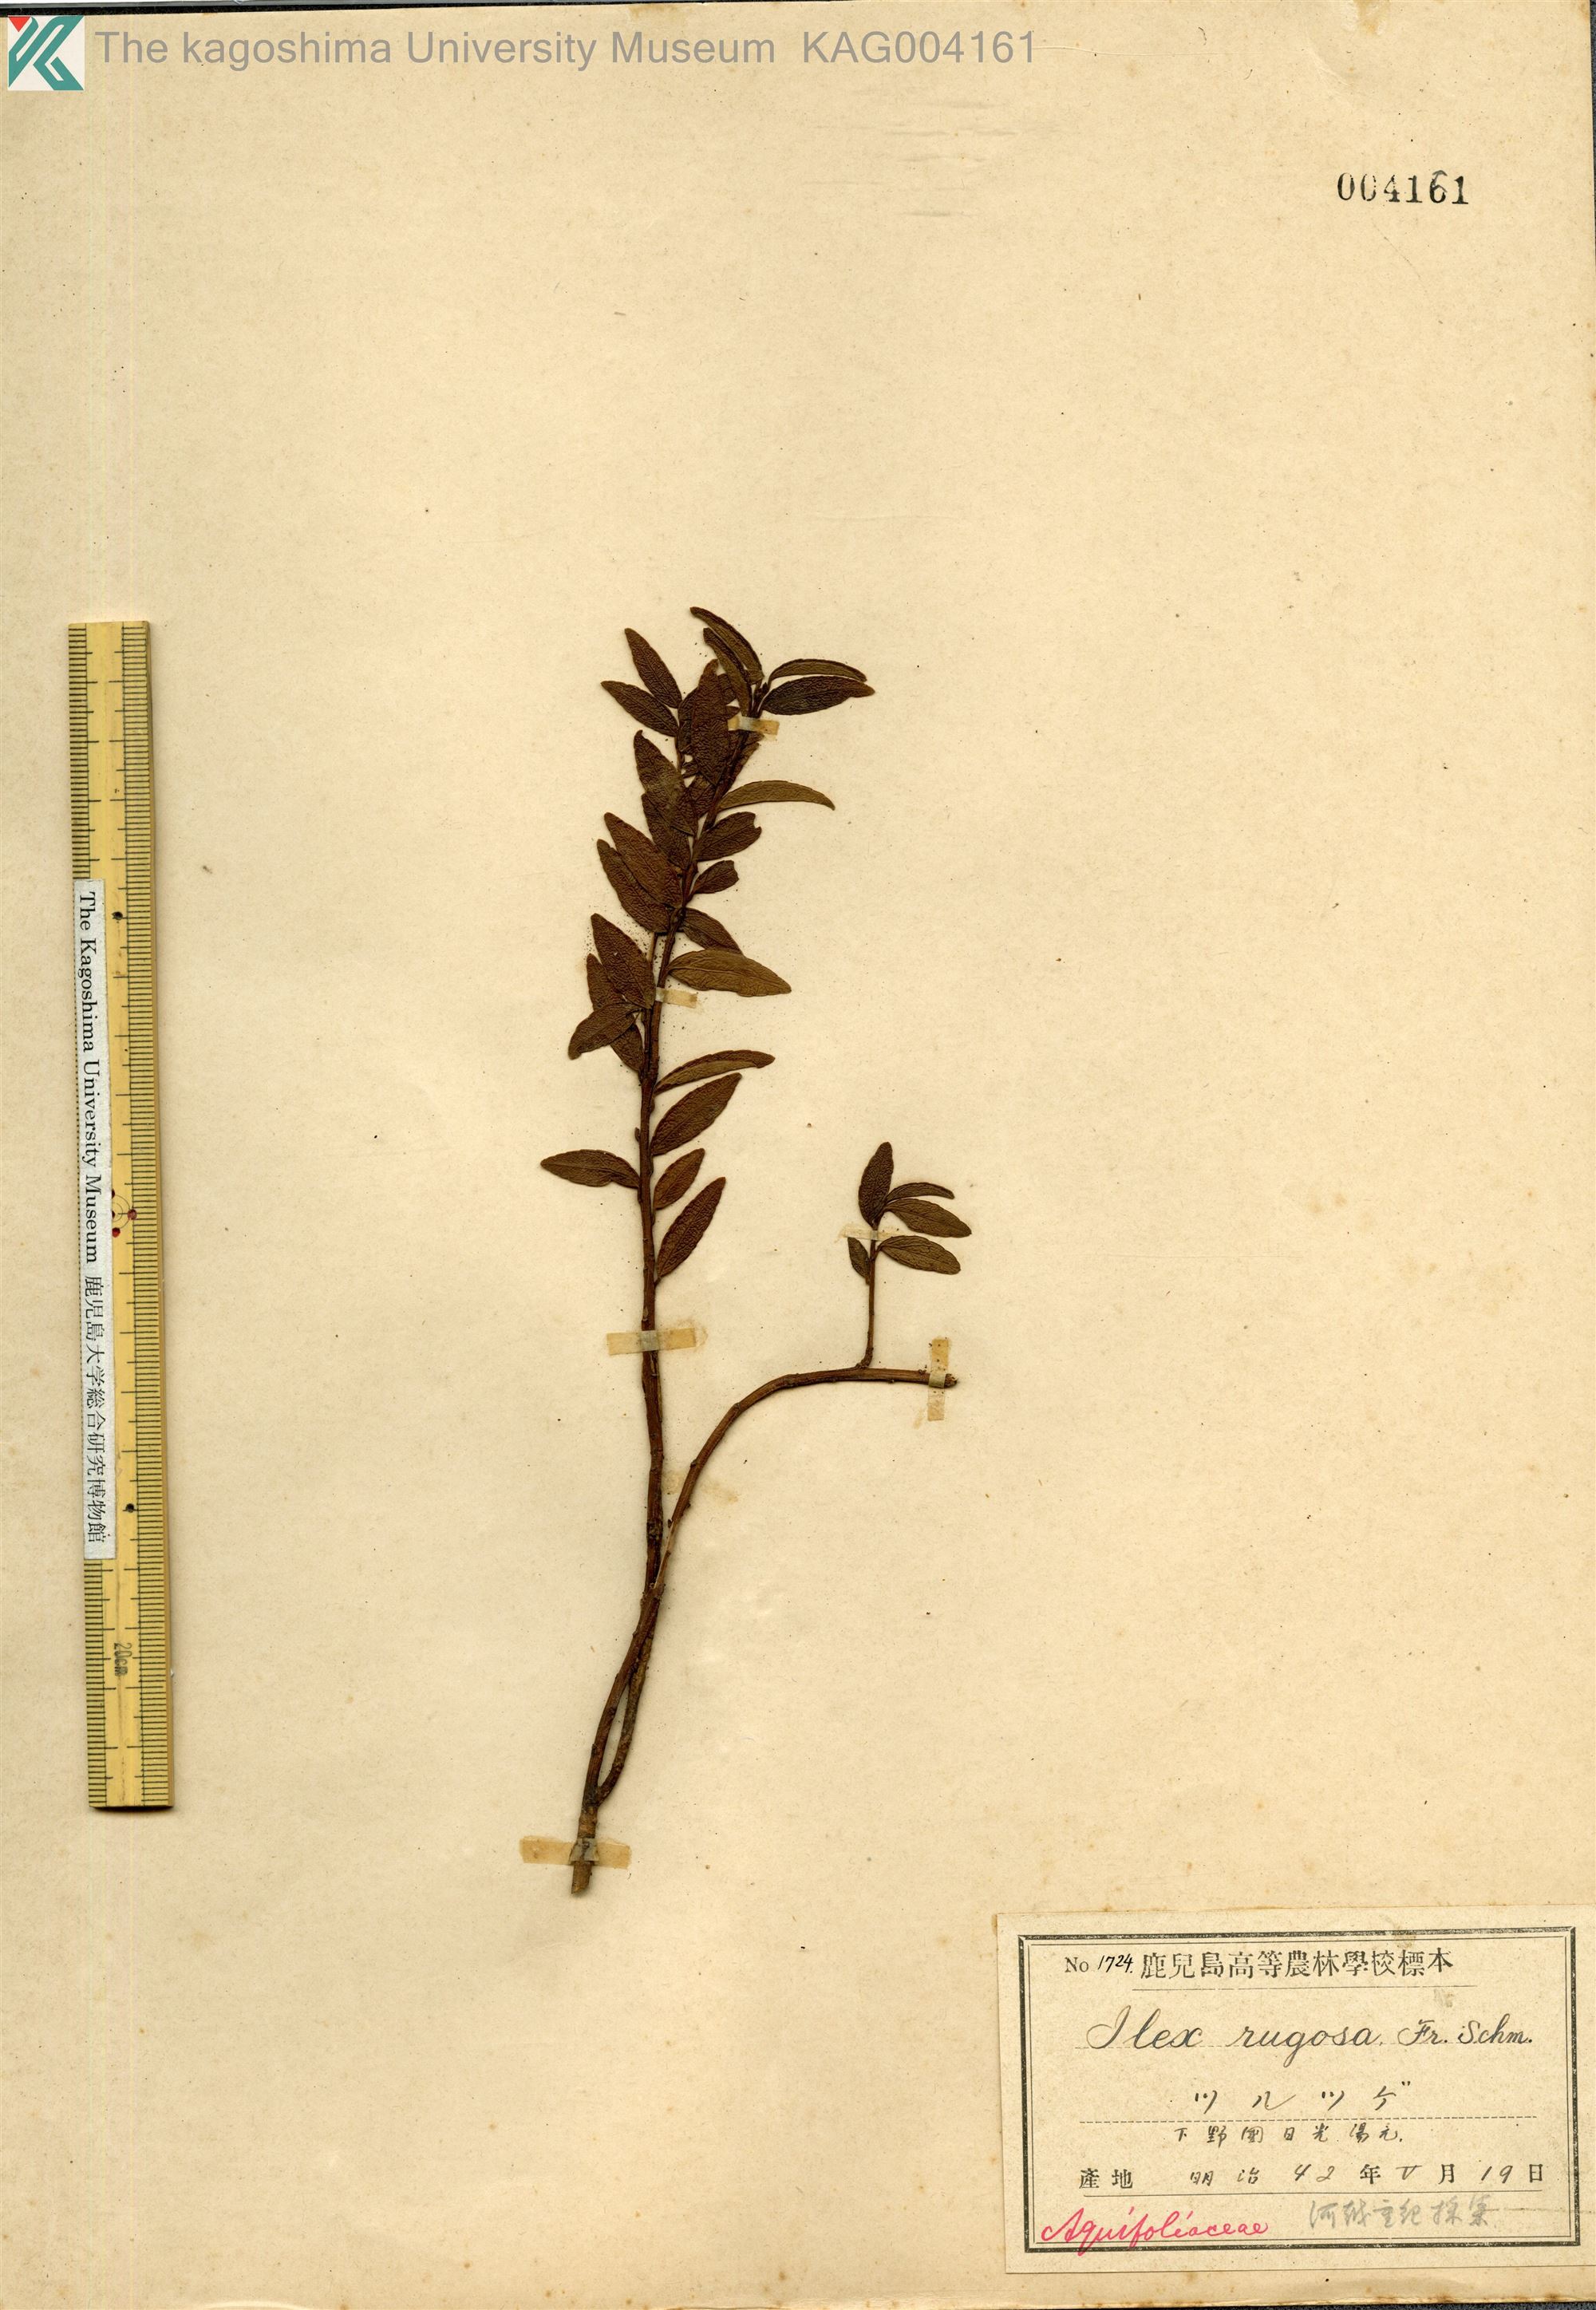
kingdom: Plantae
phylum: Tracheophyta
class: Magnoliopsida
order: Aquifoliales
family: Aquifoliaceae
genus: Ilex
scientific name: Ilex rugosa
